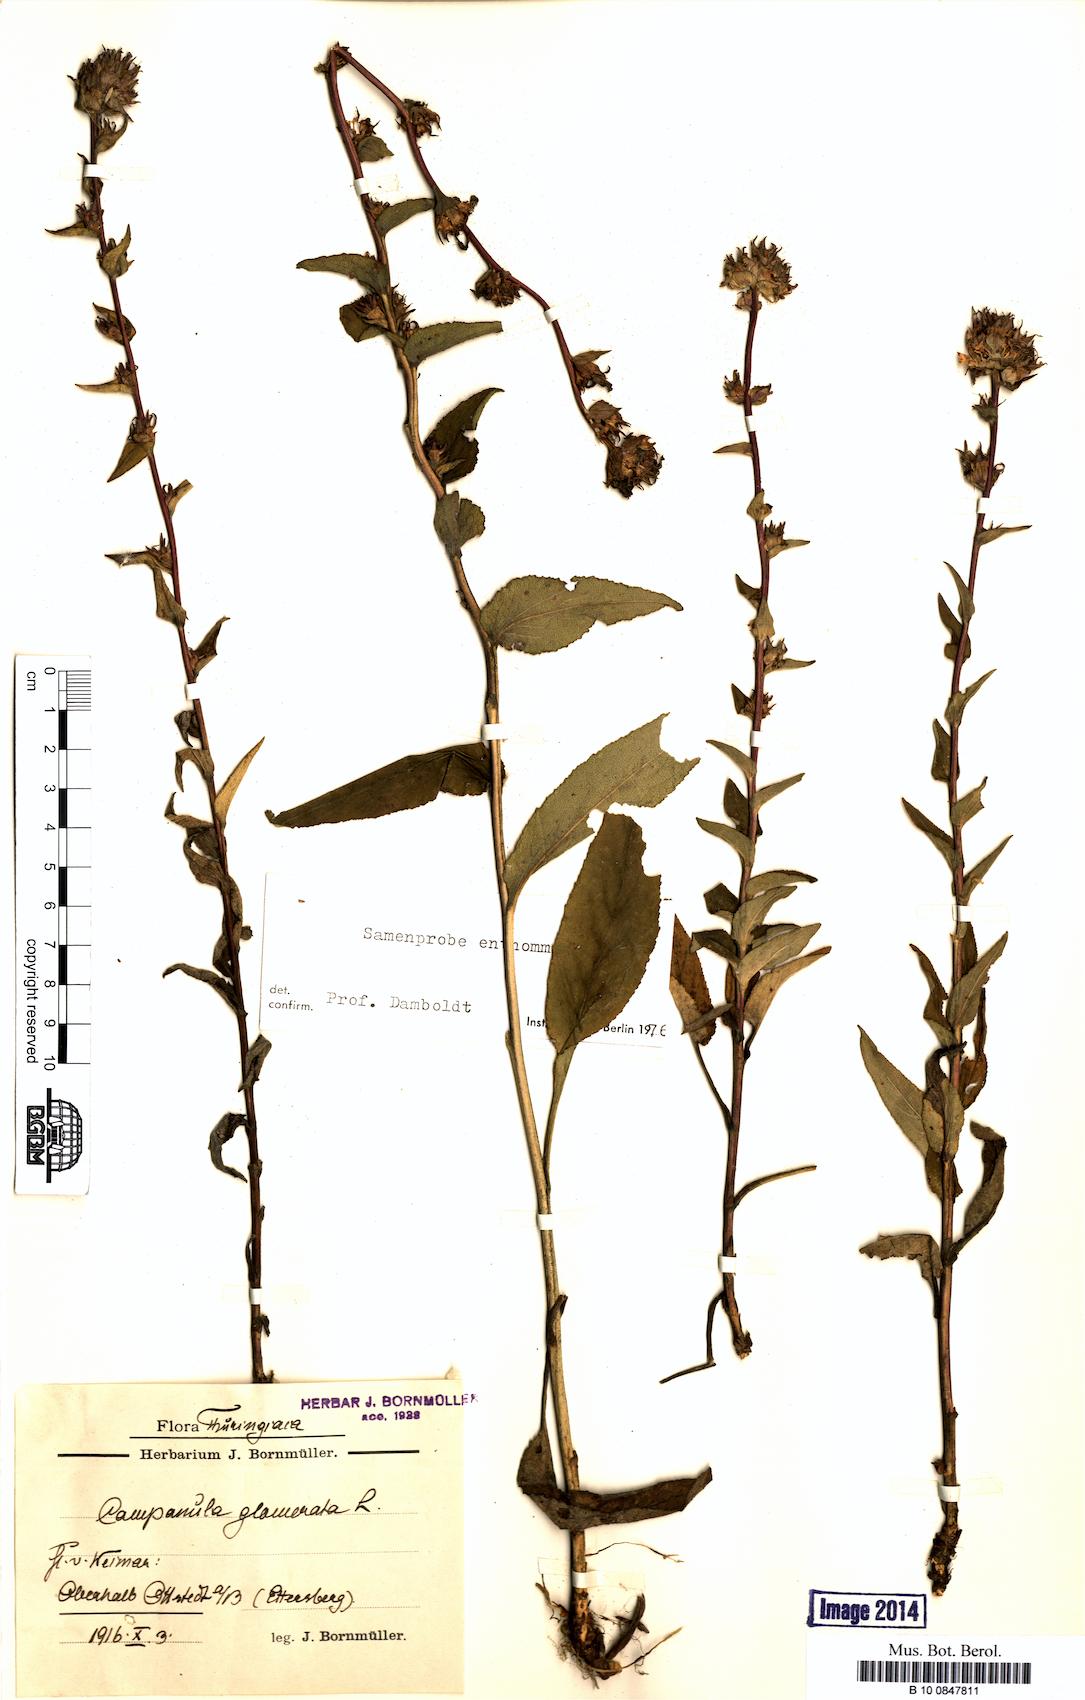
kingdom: Plantae
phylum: Tracheophyta
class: Magnoliopsida
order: Asterales
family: Campanulaceae
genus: Campanula
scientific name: Campanula glomerata
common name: Clustered bellflower
